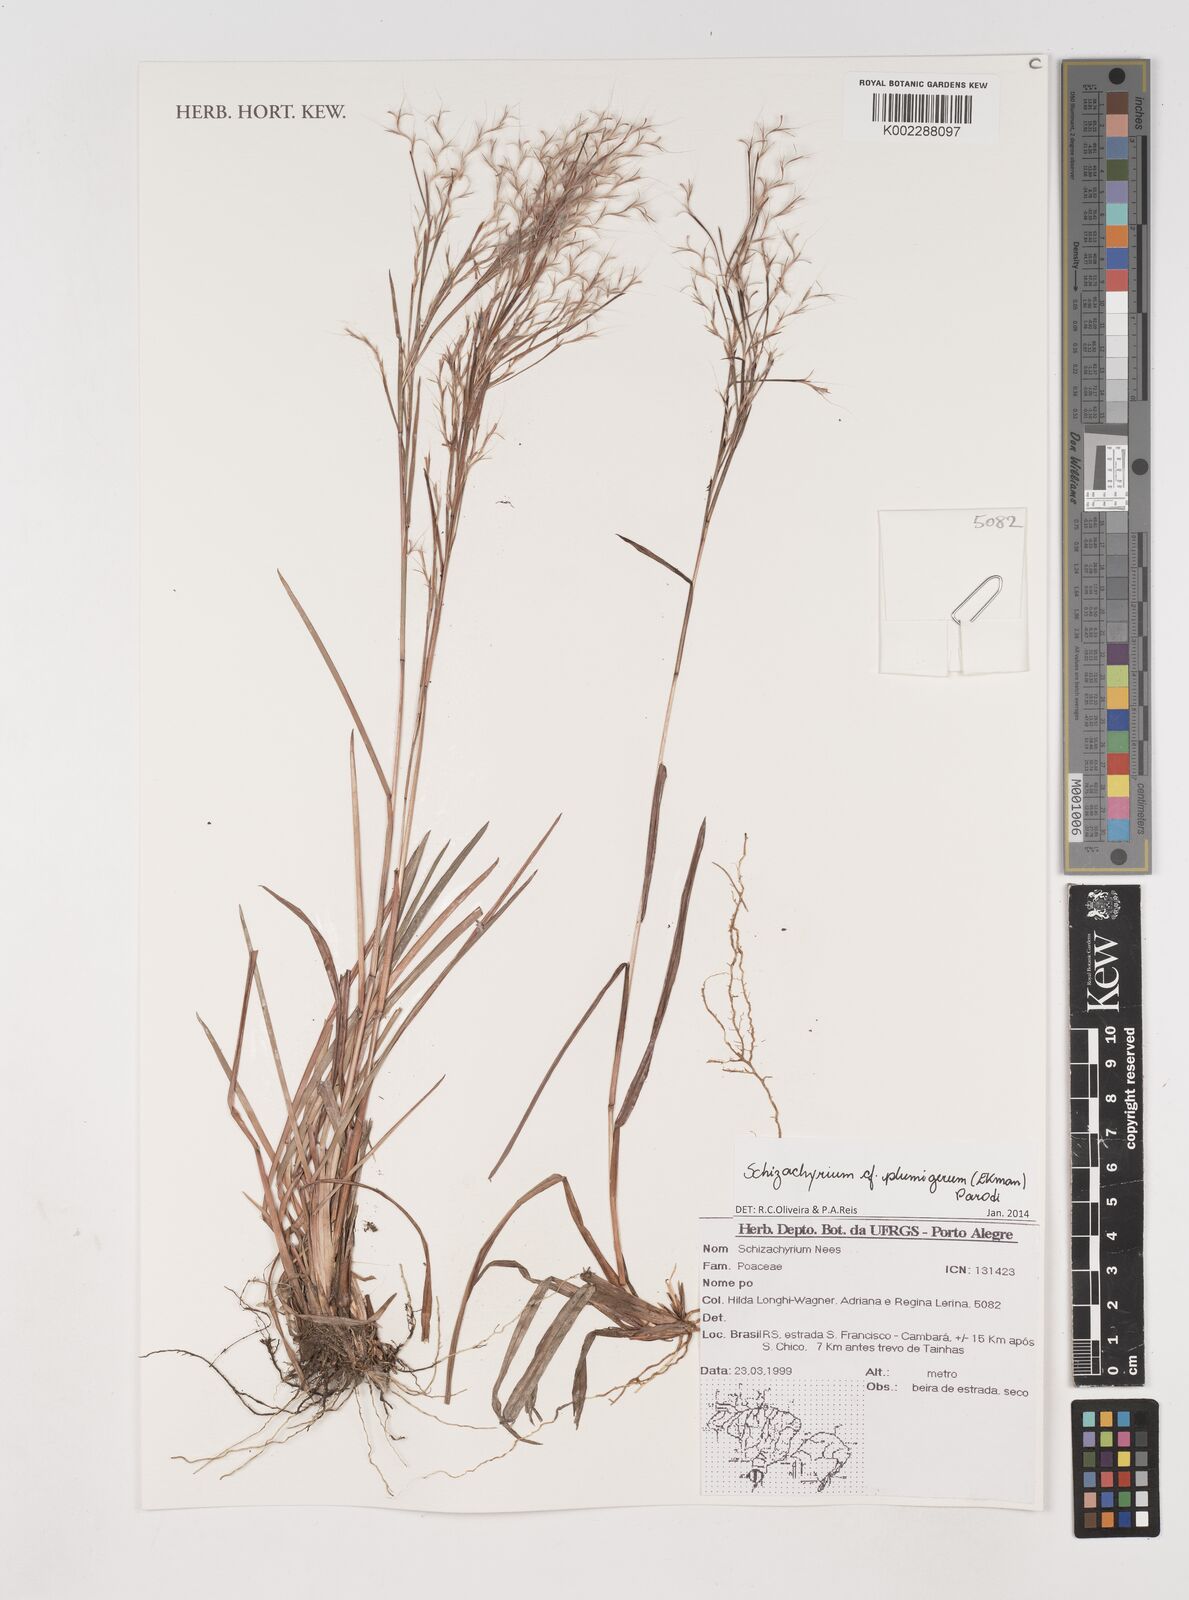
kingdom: Plantae
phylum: Tracheophyta
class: Liliopsida
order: Poales
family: Poaceae
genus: Schizachyrium
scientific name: Schizachyrium condensatum
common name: Bush beardgrass
